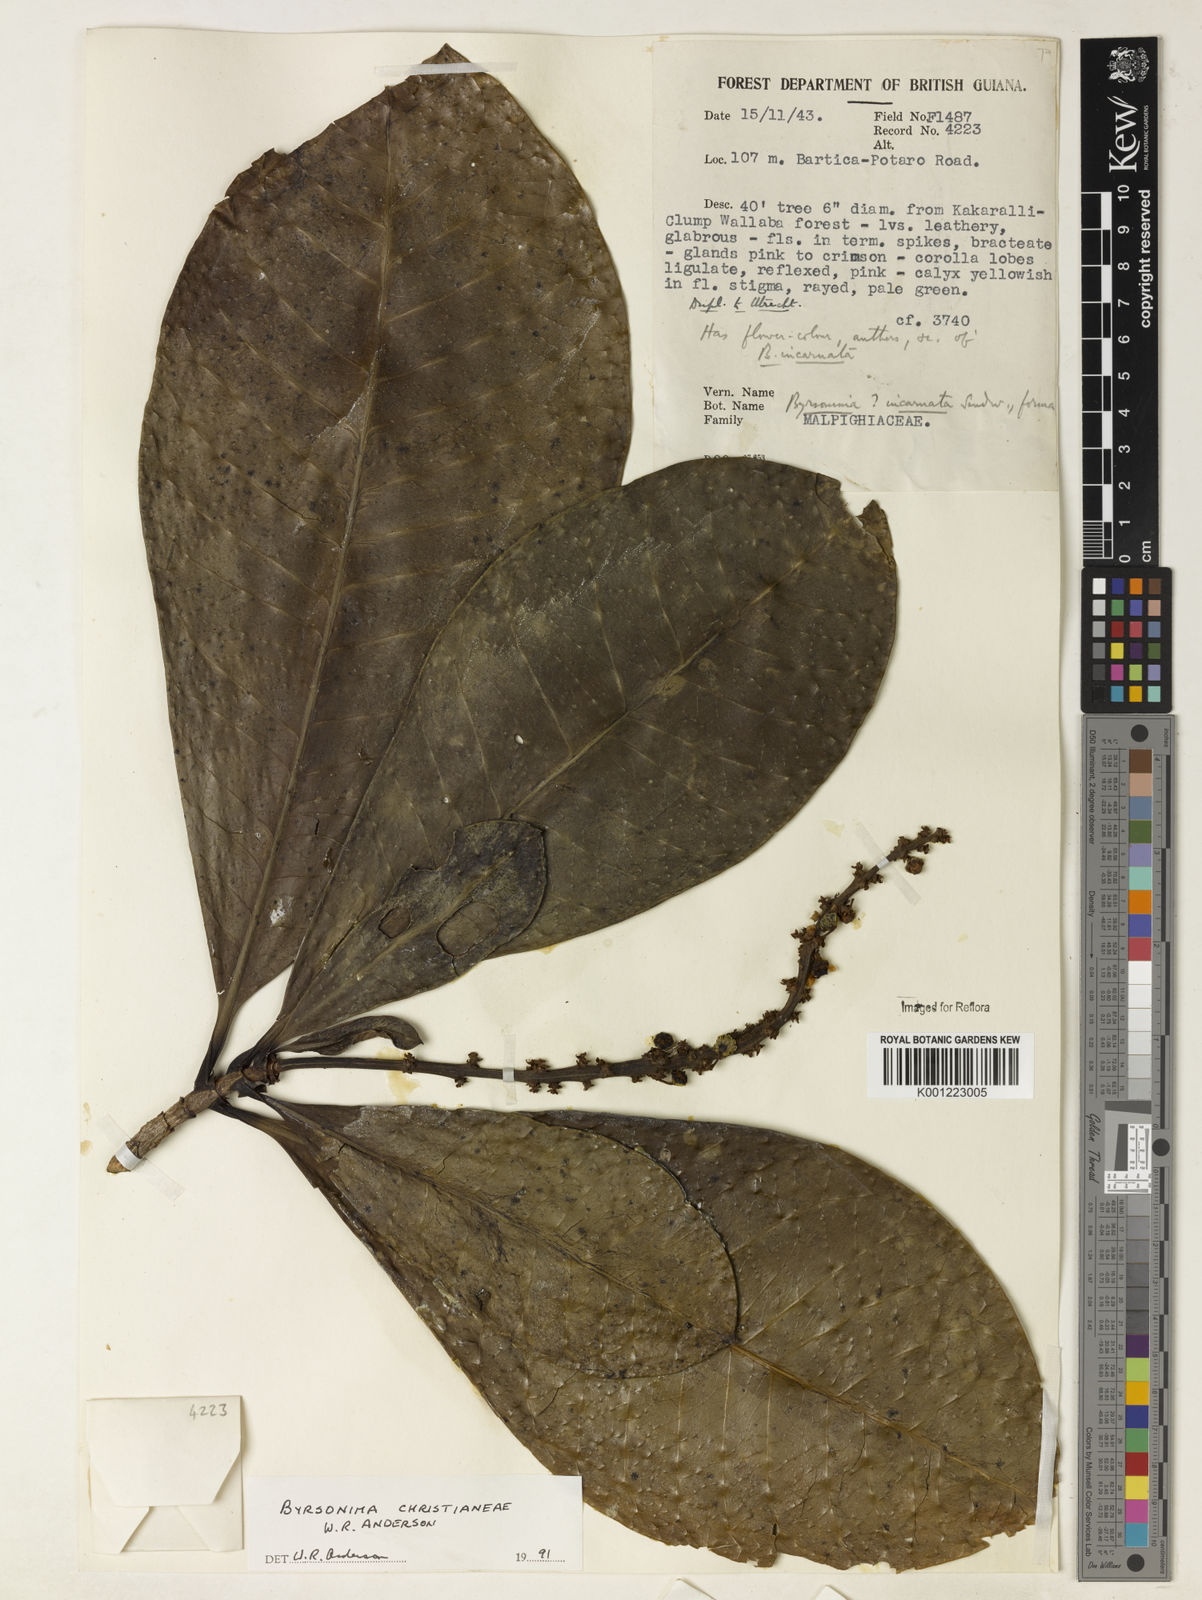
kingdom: Plantae
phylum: Tracheophyta
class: Magnoliopsida
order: Malpighiales
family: Malpighiaceae
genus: Byrsonima
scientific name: Byrsonima christianeae
